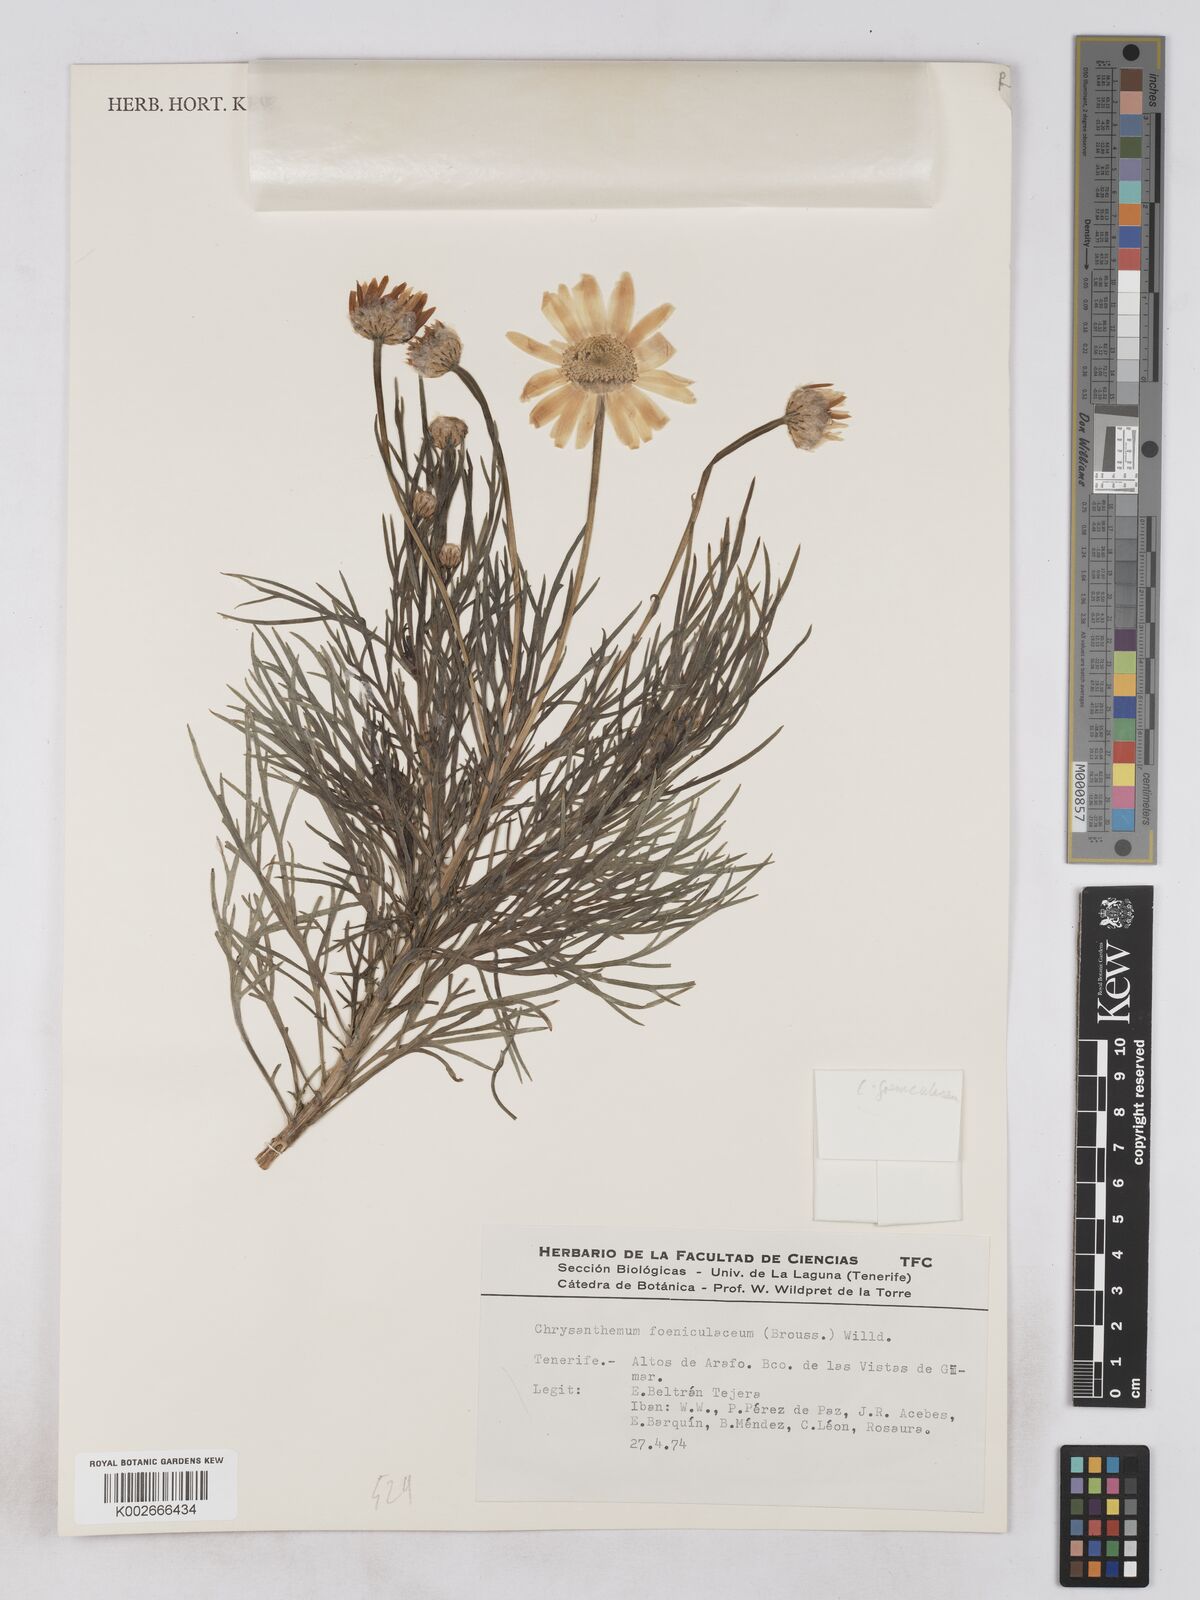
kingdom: Plantae
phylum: Tracheophyta
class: Magnoliopsida
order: Asterales
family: Asteraceae
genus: Argyranthemum
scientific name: Argyranthemum foeniculaceum
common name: Canary island marguerite
